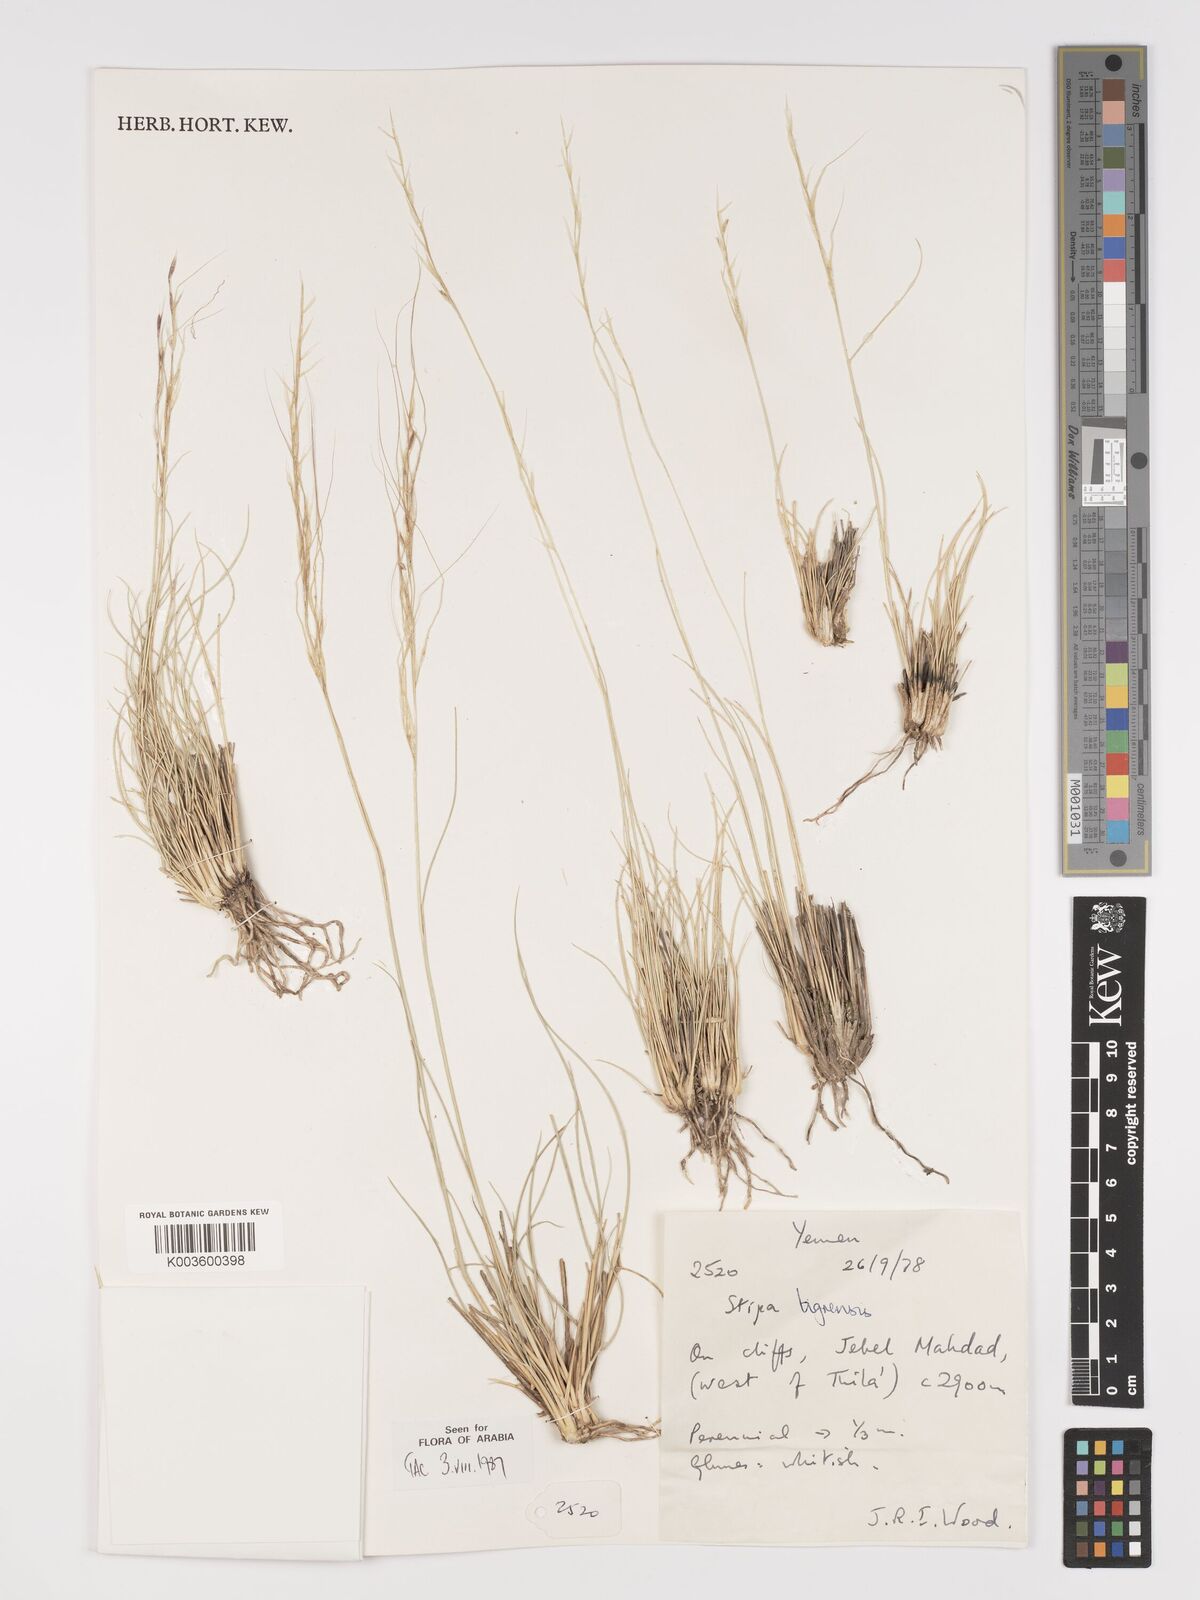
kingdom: Plantae
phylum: Tracheophyta
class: Liliopsida
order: Poales
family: Poaceae
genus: Stipa
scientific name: Stipa tigrensis
